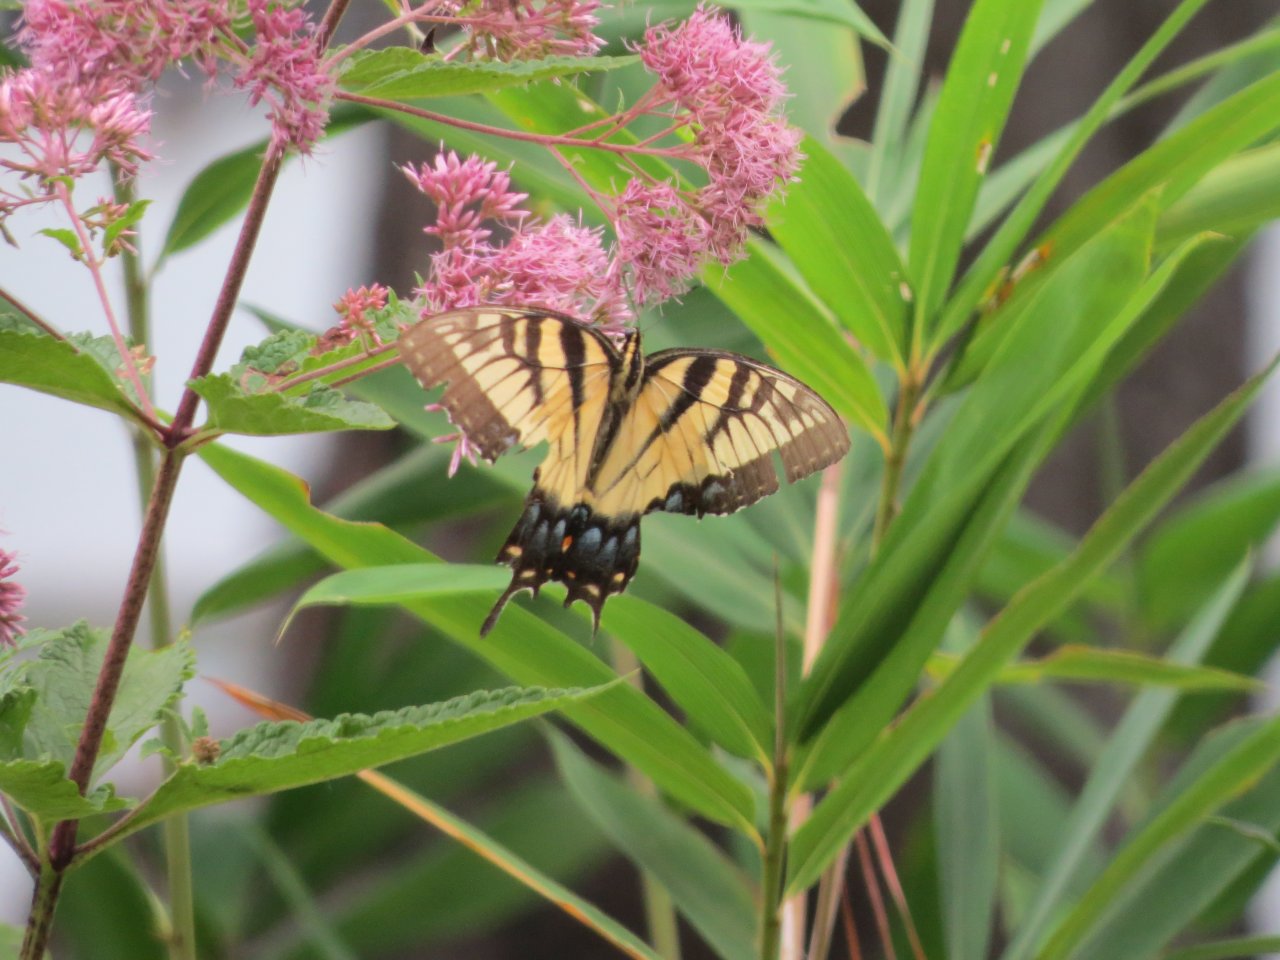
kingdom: Animalia
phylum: Arthropoda
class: Insecta
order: Lepidoptera
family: Papilionidae
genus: Pterourus
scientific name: Pterourus glaucus
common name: Eastern Tiger Swallowtail
